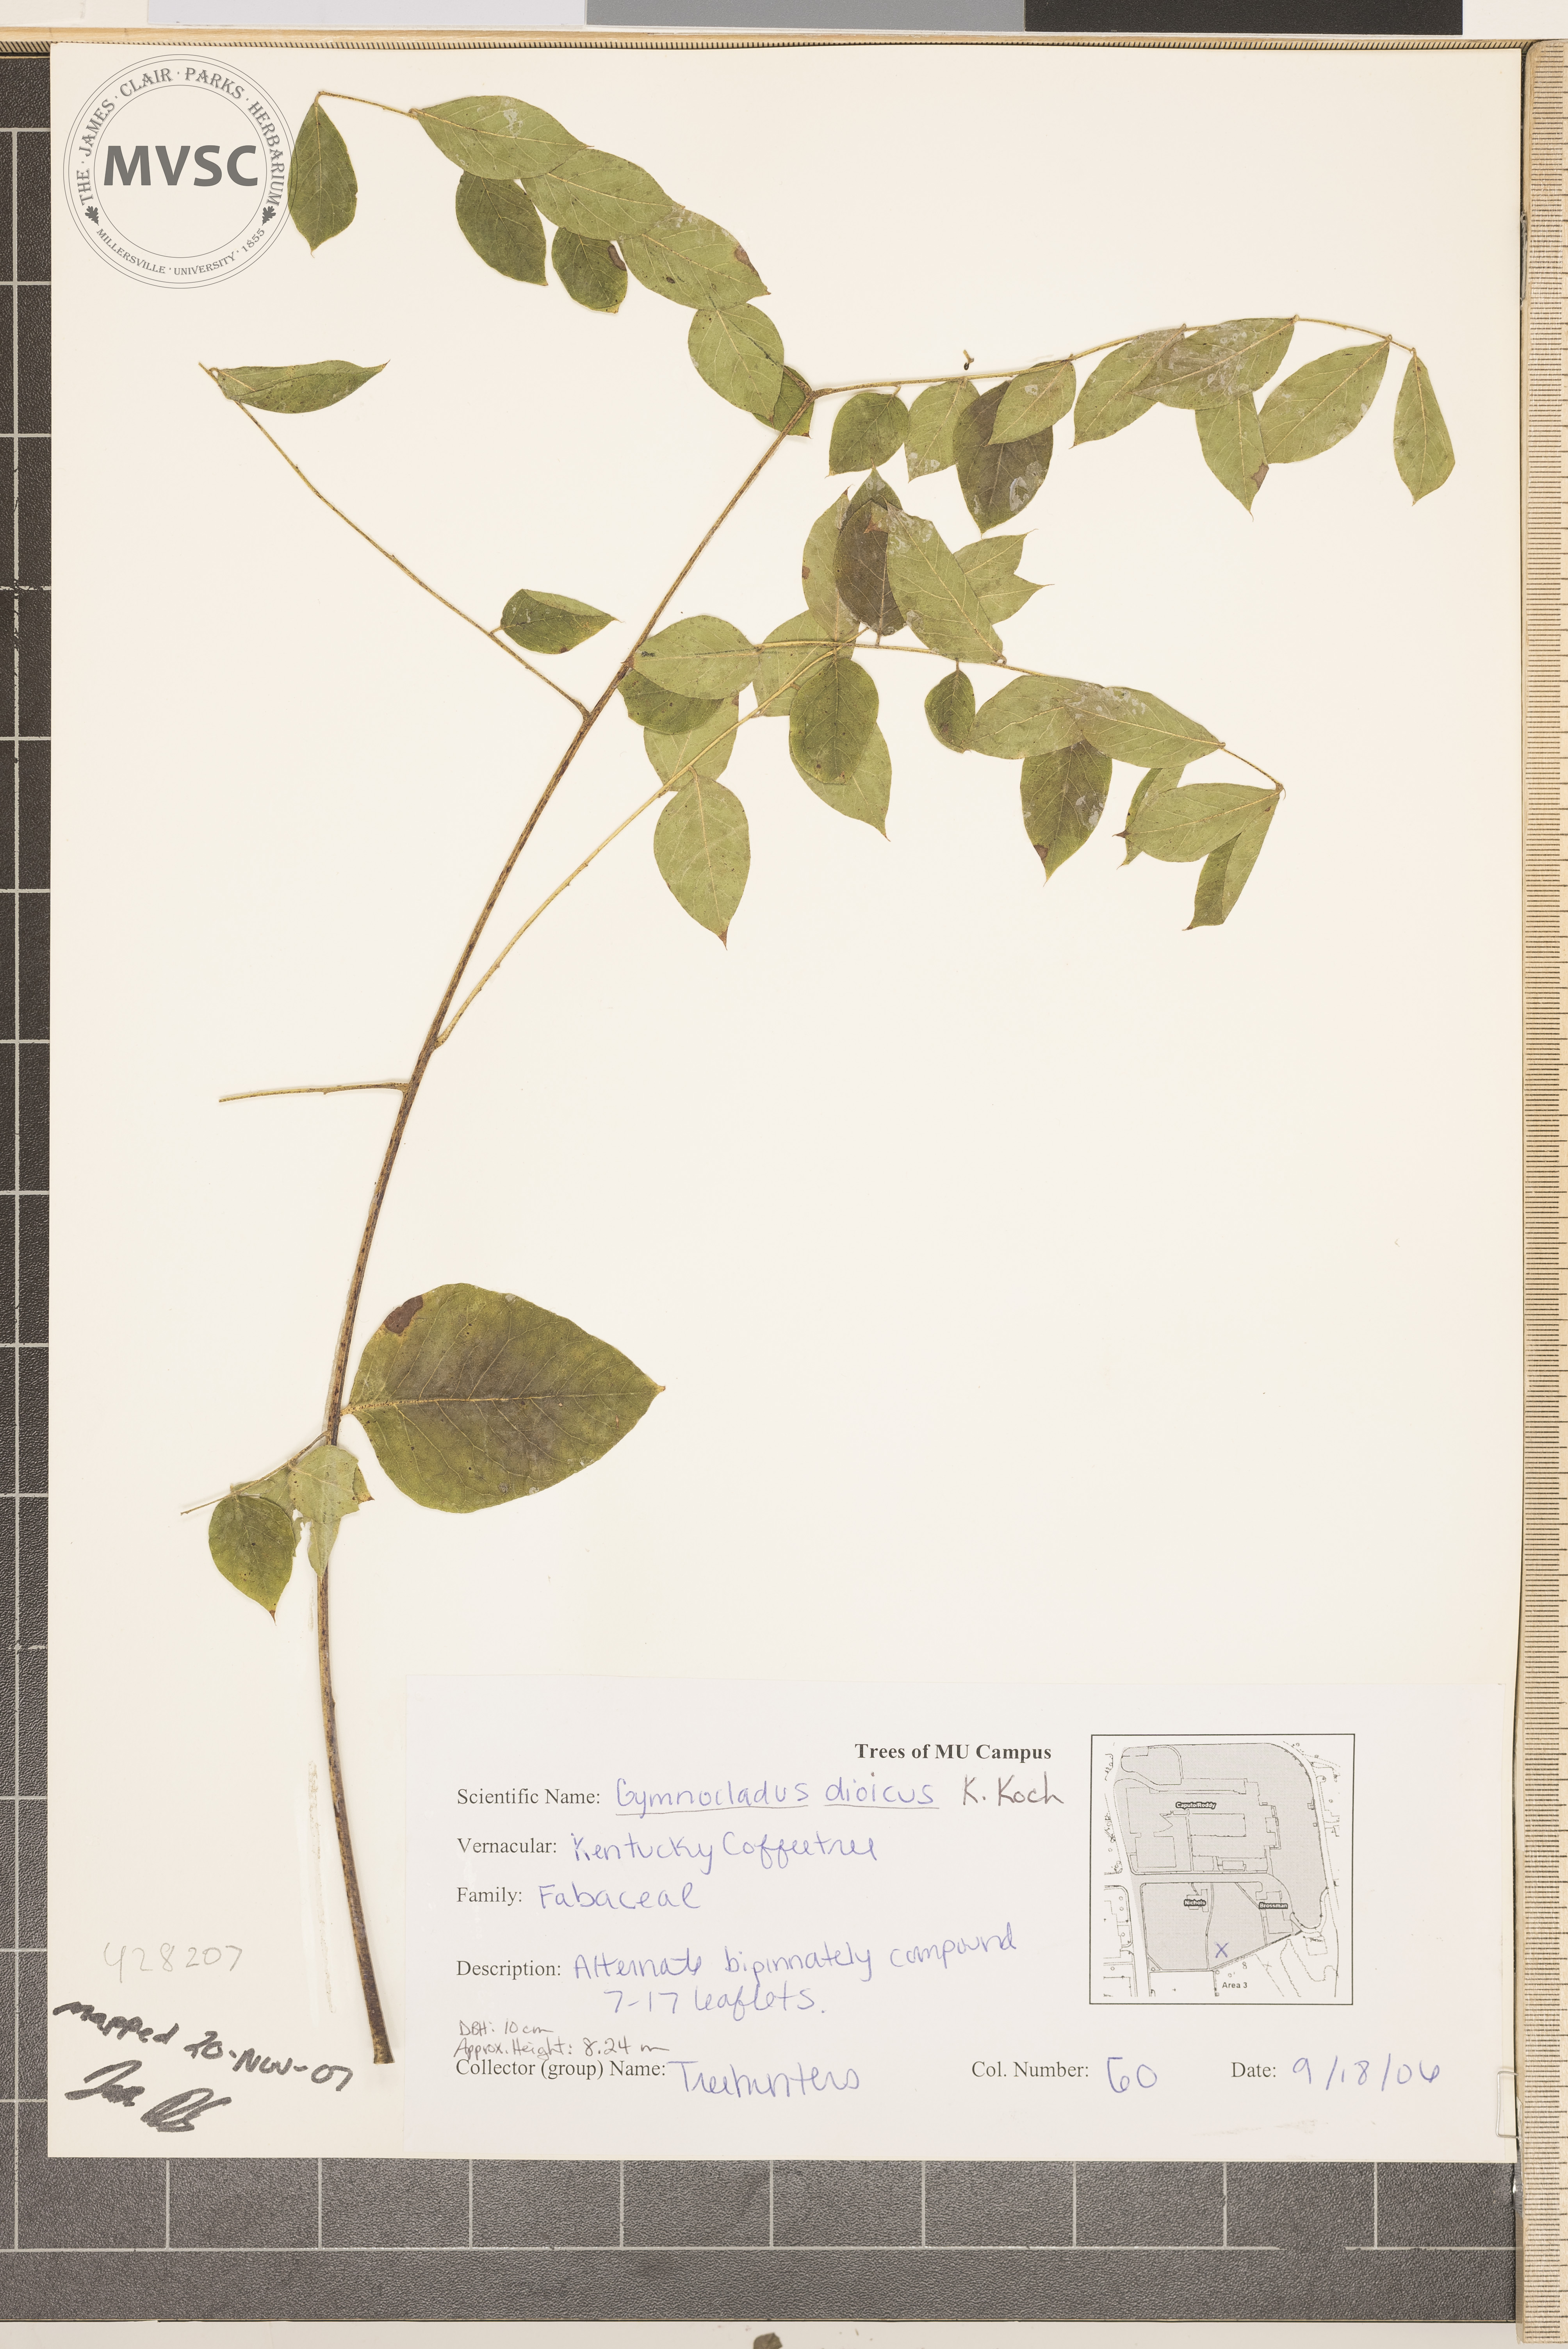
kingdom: Plantae
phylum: Tracheophyta
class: Magnoliopsida
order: Fabales
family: Fabaceae
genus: Gymnocladus
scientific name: Gymnocladus dioicus
